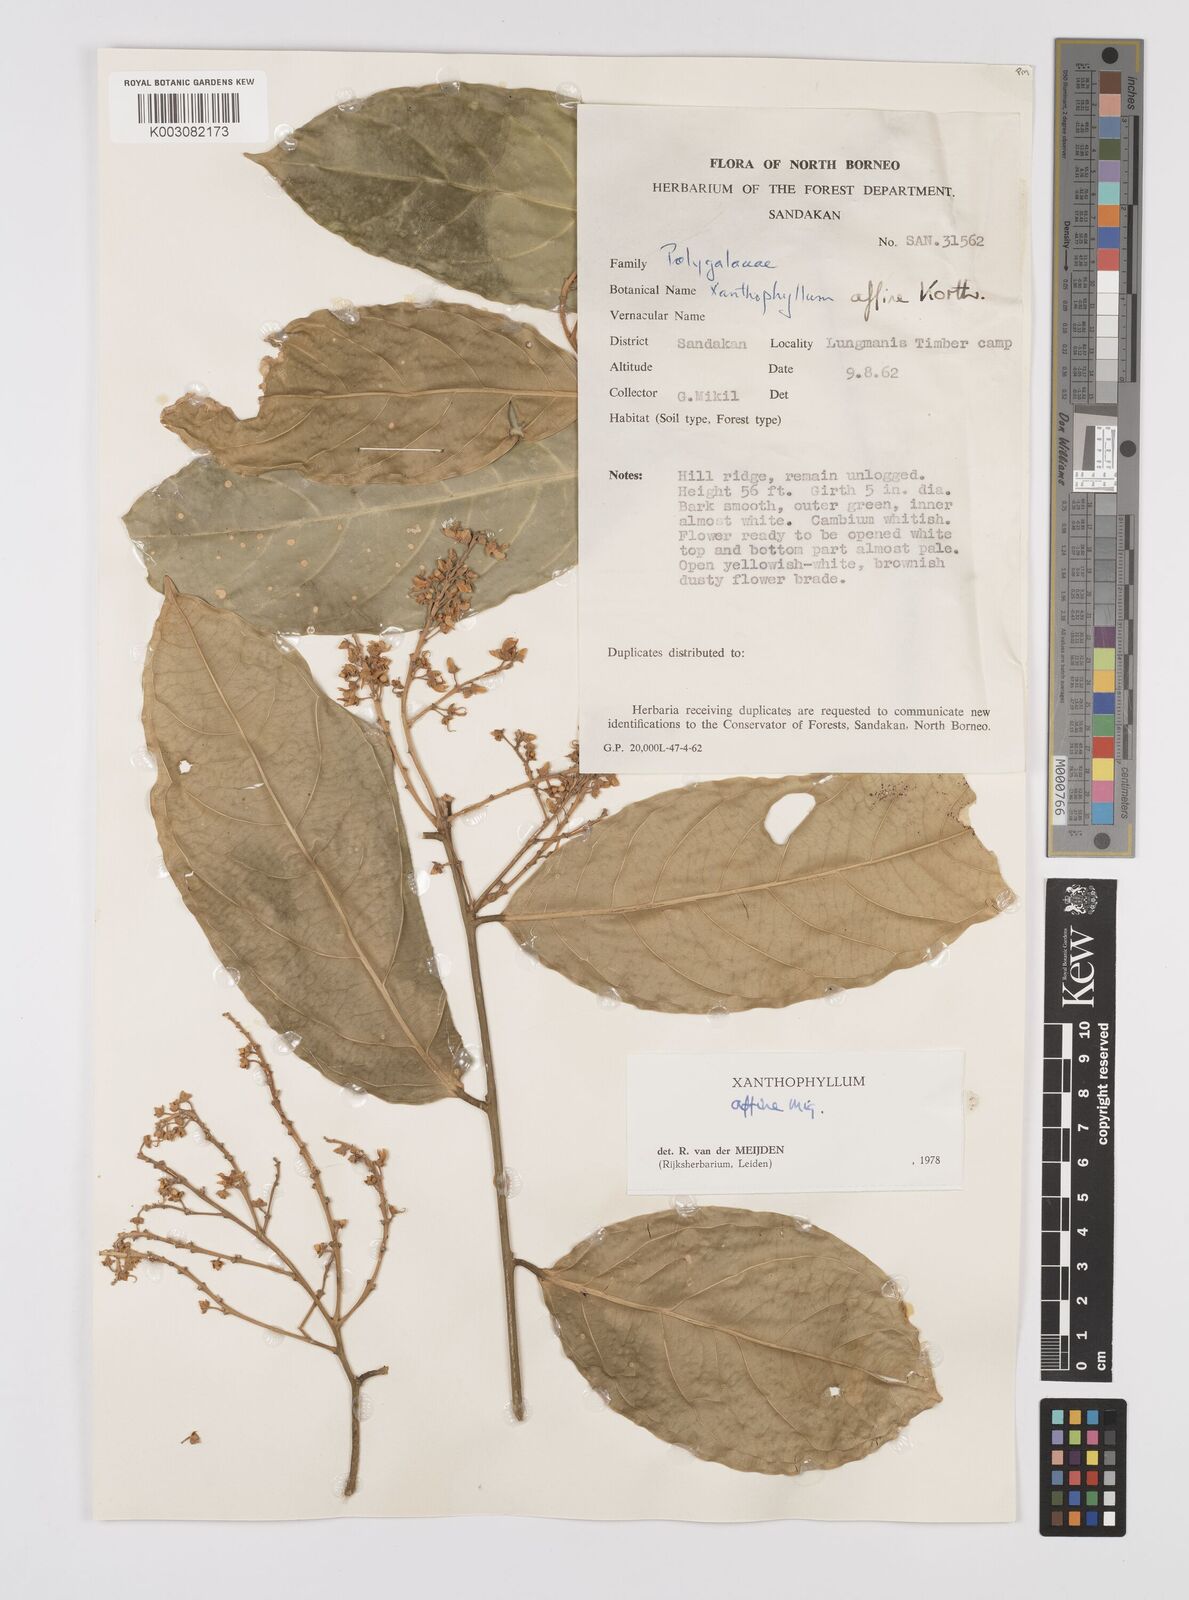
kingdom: Plantae
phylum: Tracheophyta
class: Magnoliopsida
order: Fabales
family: Polygalaceae
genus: Xanthophyllum
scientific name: Xanthophyllum flavescens
